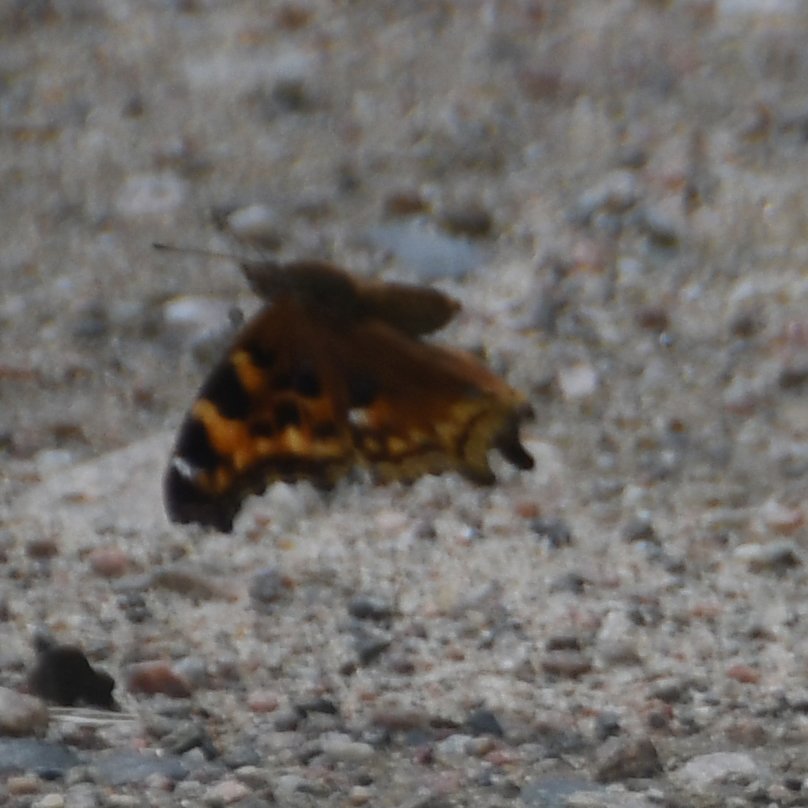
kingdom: Animalia
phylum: Arthropoda
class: Insecta
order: Lepidoptera
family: Nymphalidae
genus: Polygonia
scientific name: Polygonia vaualbum
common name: Compton Tortoiseshell
